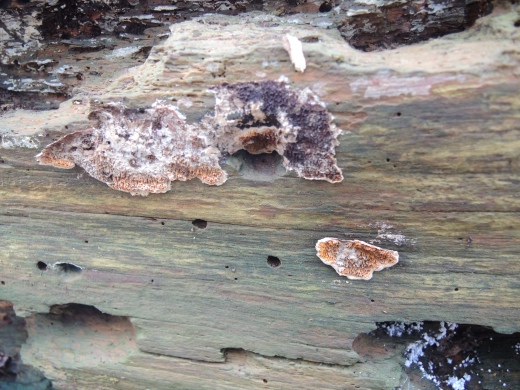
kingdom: Fungi
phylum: Basidiomycota
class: Agaricomycetes
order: Boletales
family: Serpulaceae
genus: Serpula
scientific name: Serpula
